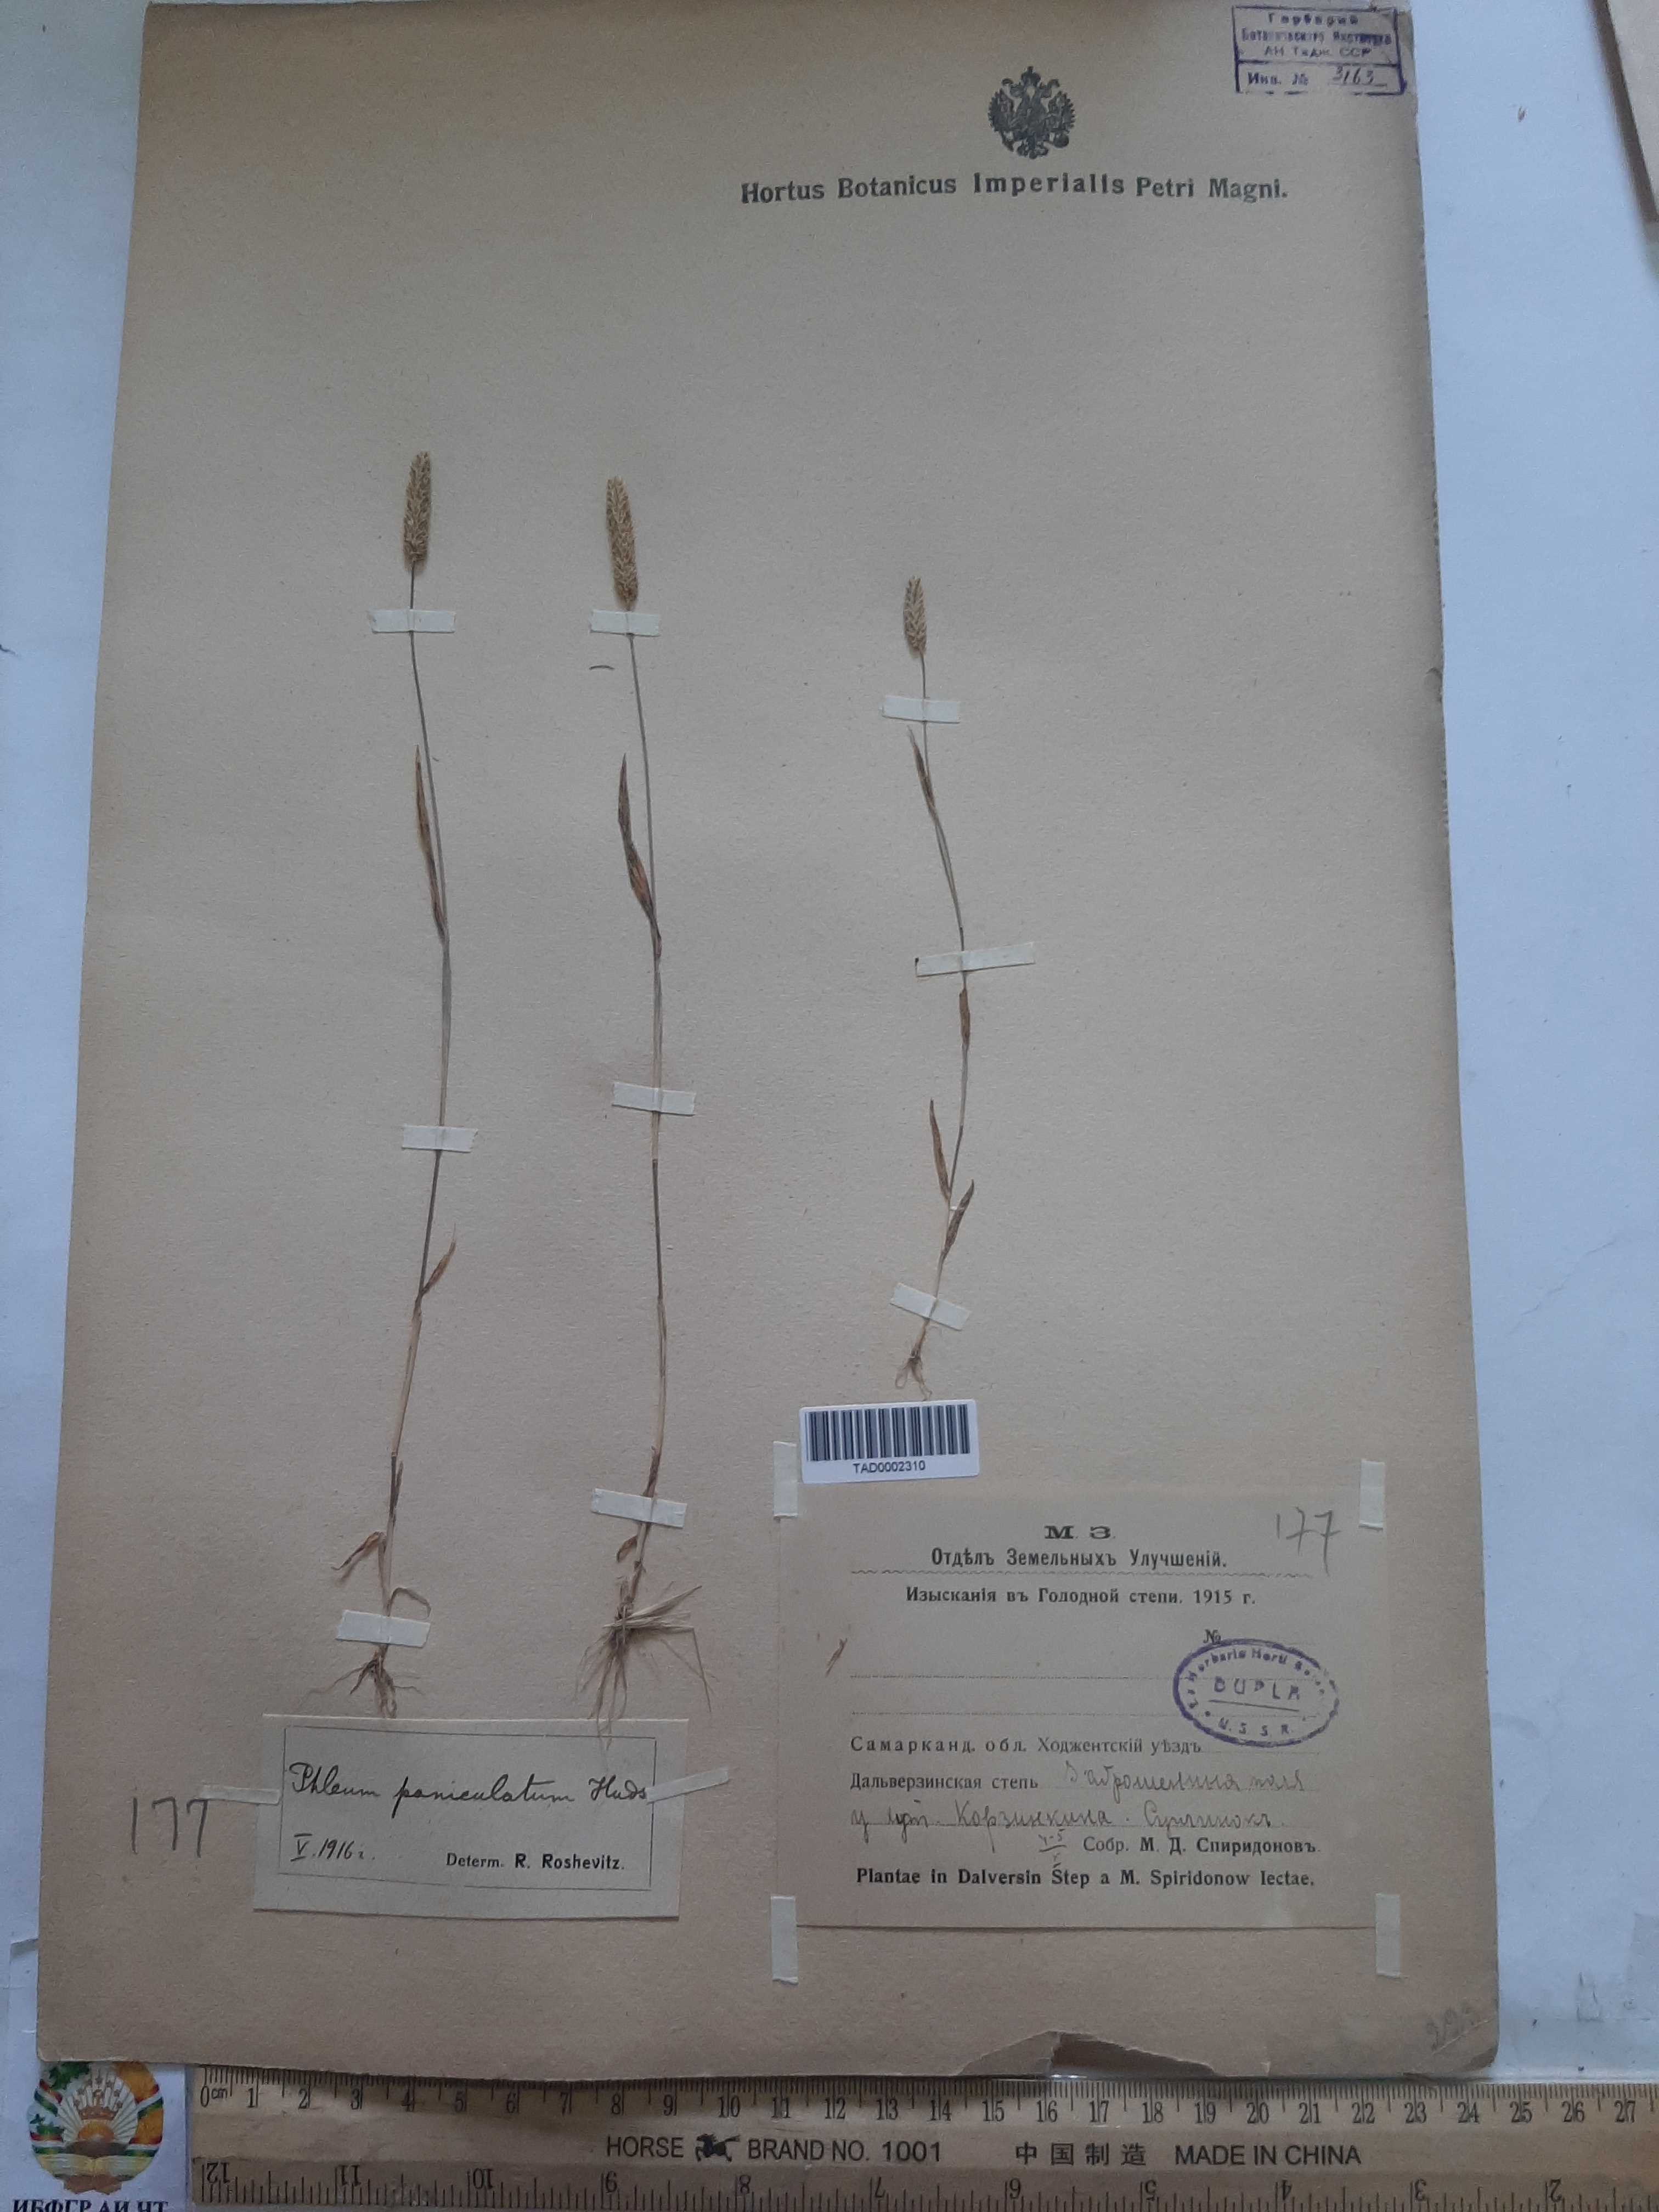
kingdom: Plantae
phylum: Tracheophyta
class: Liliopsida
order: Poales
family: Poaceae
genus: Phleum
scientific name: Phleum paniculatum
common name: British timothy
